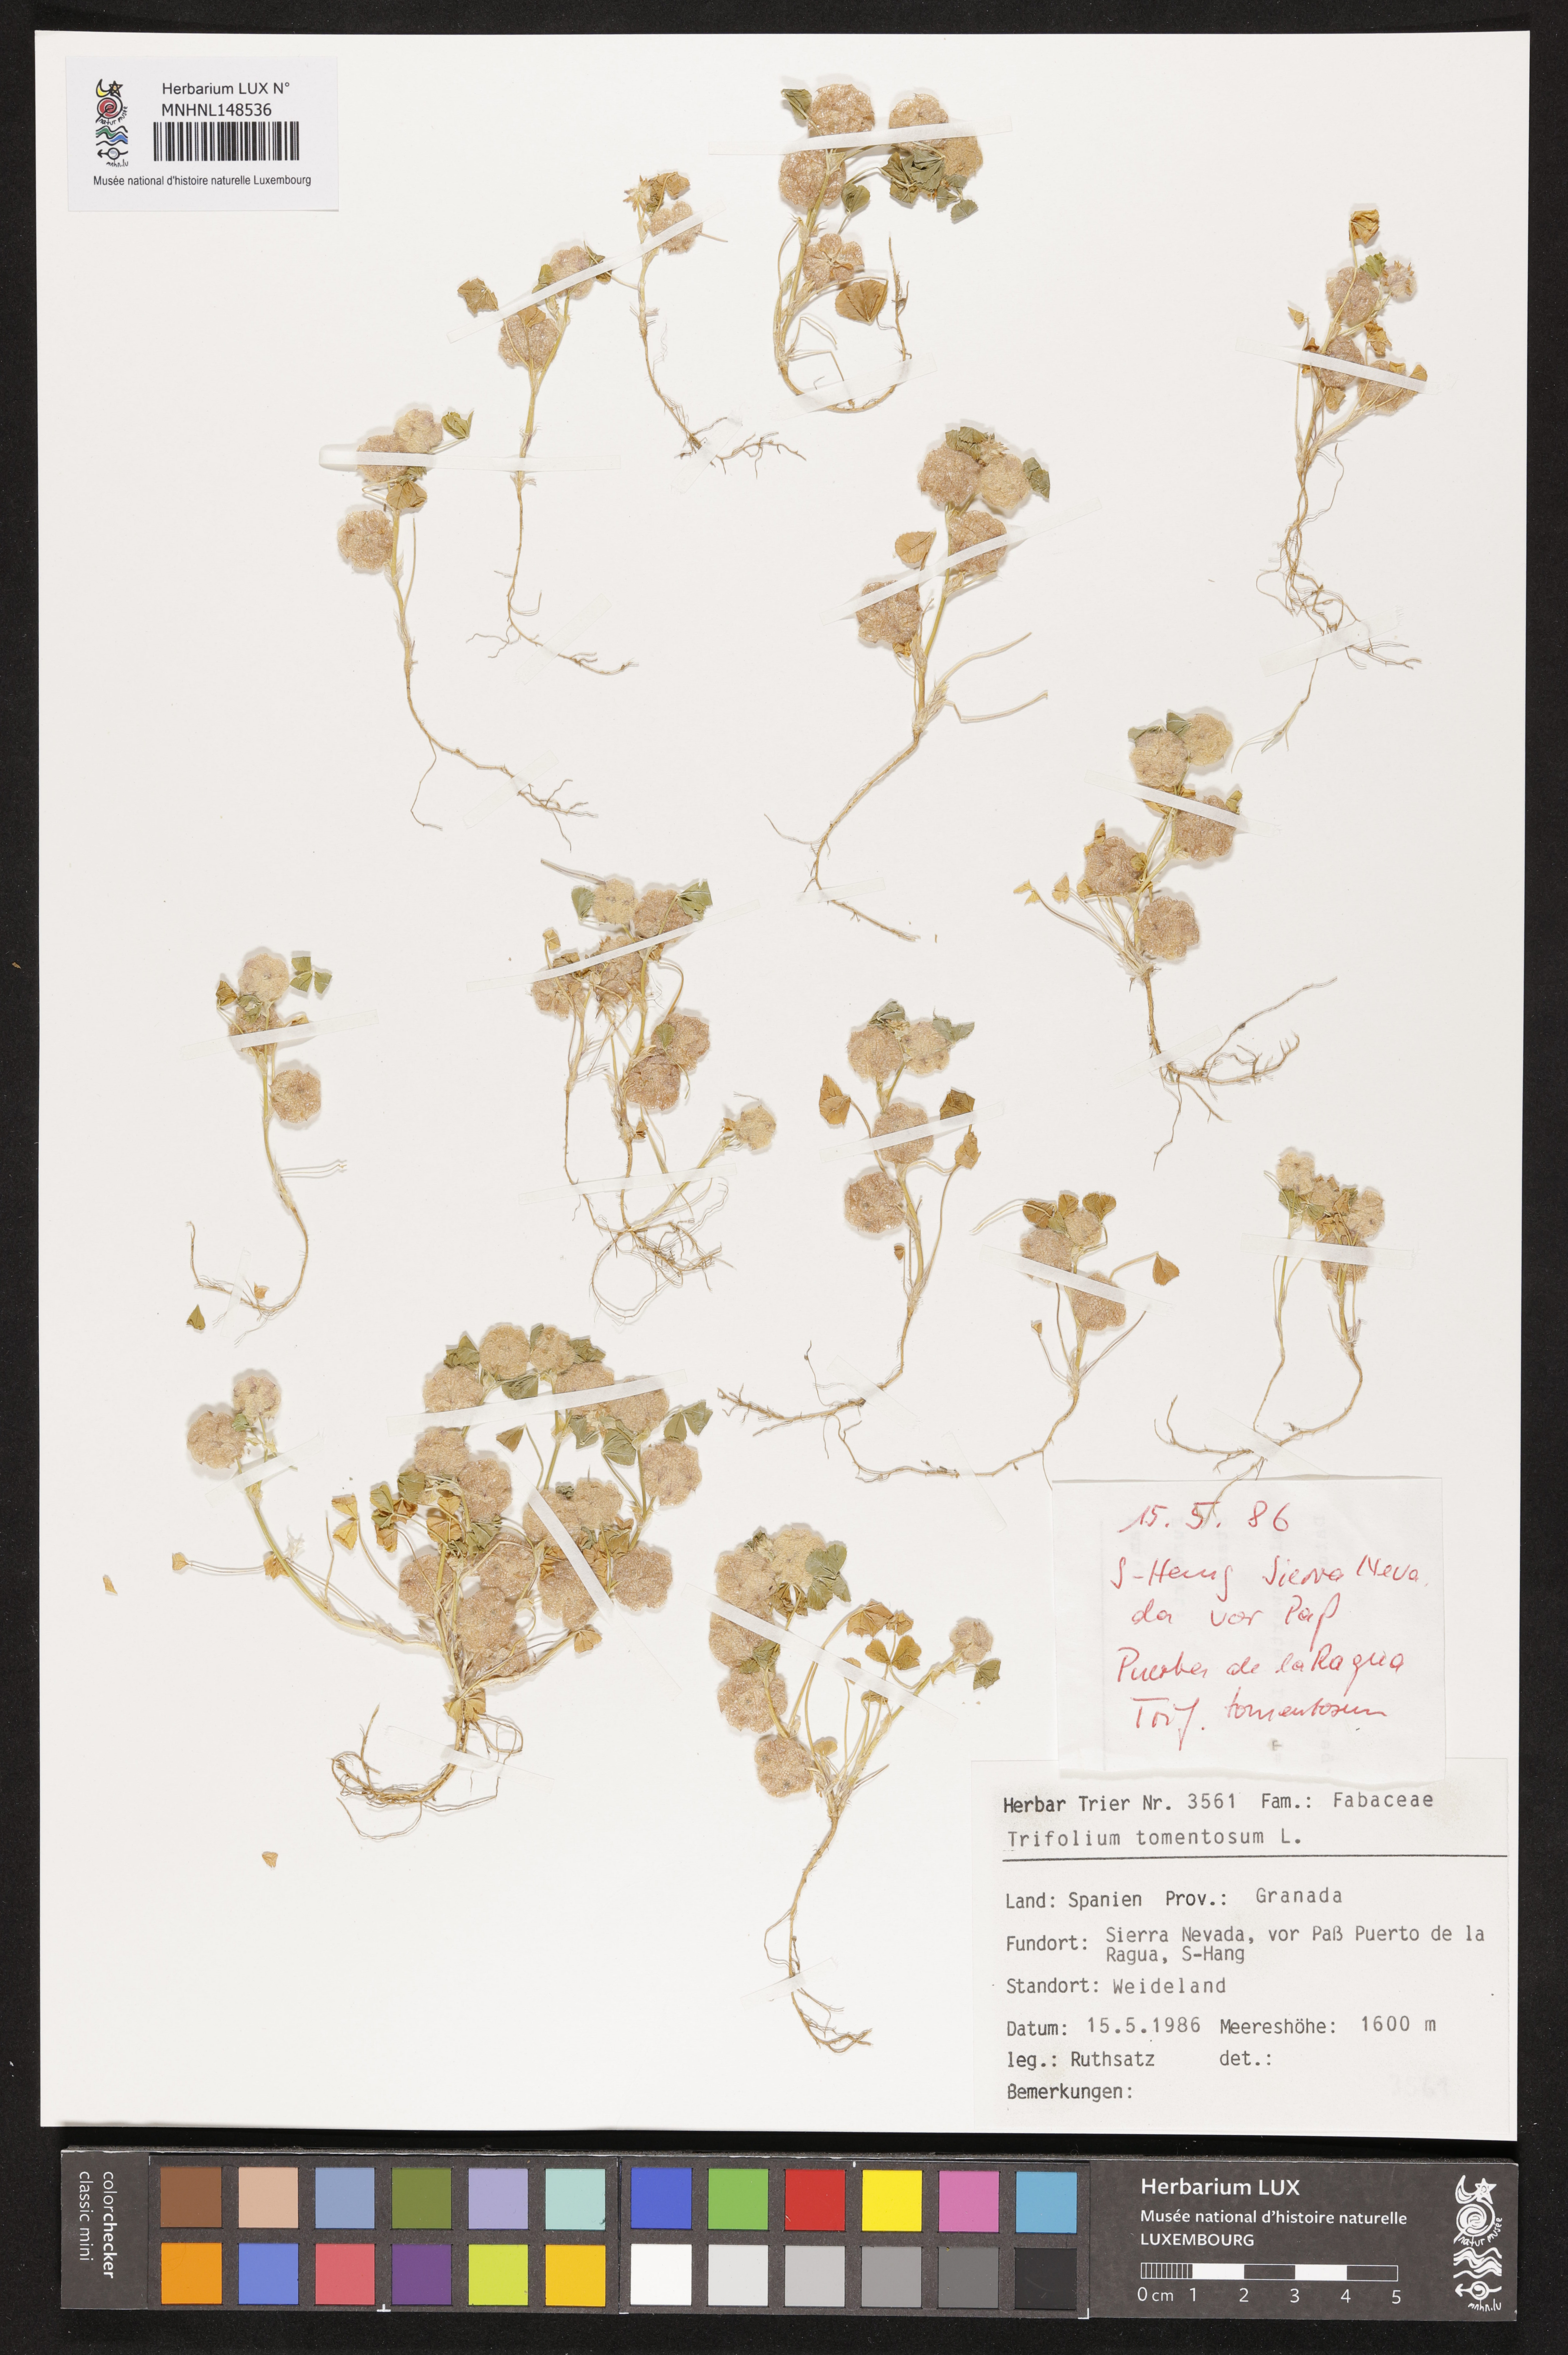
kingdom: Plantae
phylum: Tracheophyta
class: Magnoliopsida
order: Fabales
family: Fabaceae
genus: Trifolium
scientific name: Trifolium tomentosum
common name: Woolly clover
